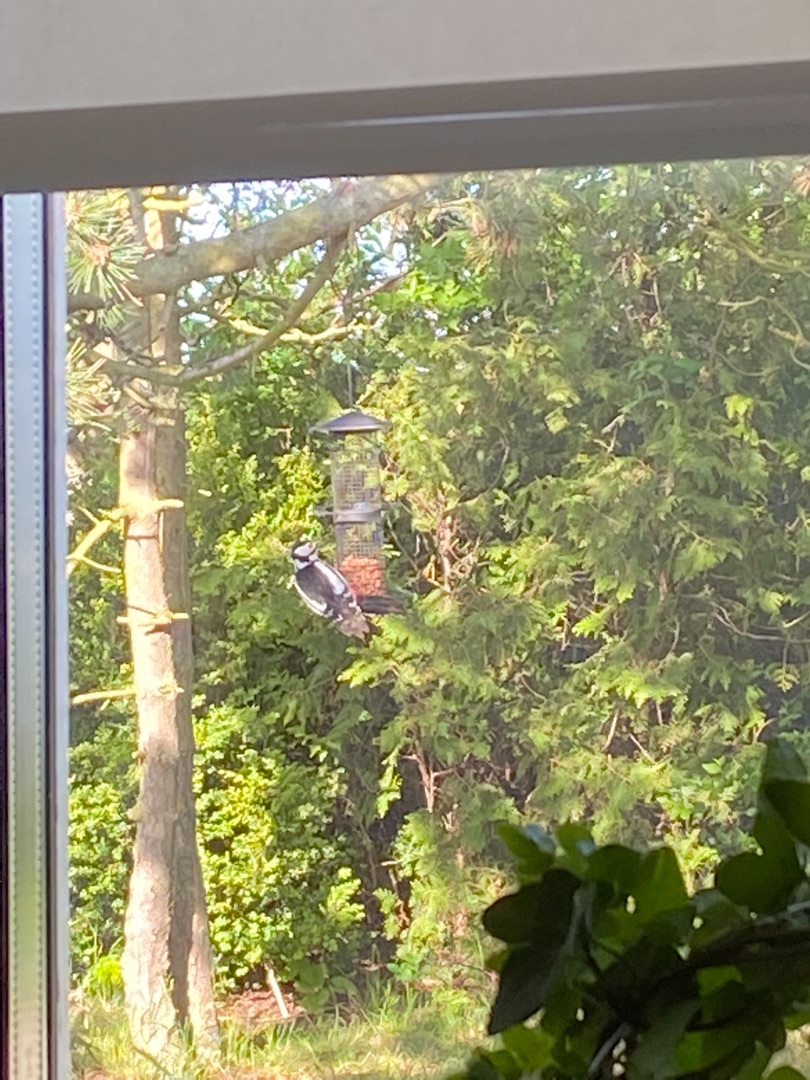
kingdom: Animalia
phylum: Chordata
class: Aves
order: Piciformes
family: Picidae
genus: Dendrocopos
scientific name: Dendrocopos major
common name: Stor flagspætte
